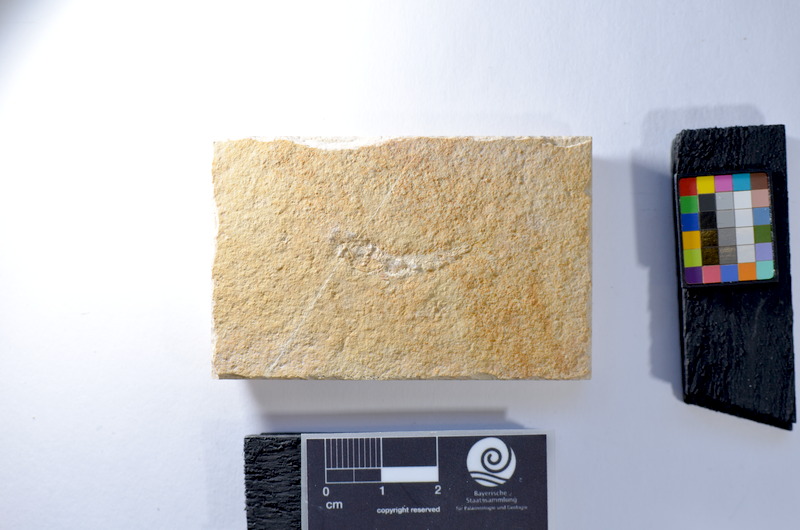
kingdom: Animalia
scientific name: Animalia
